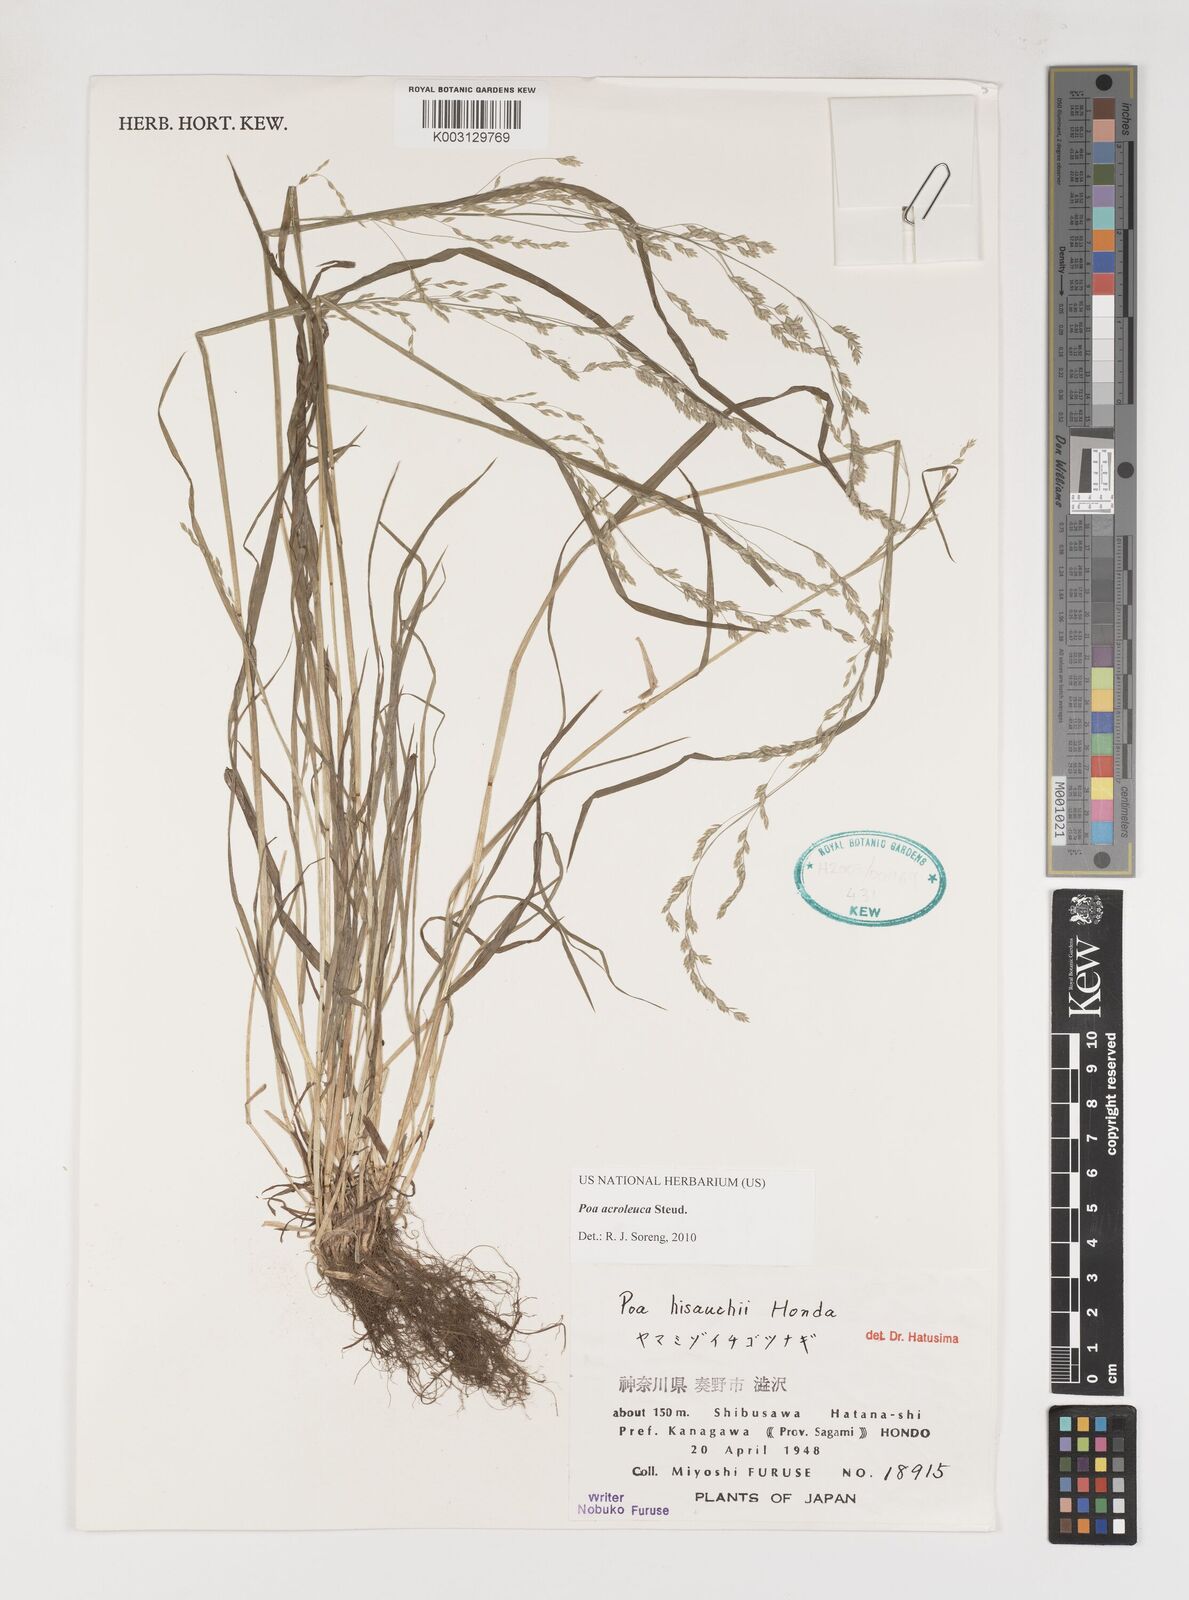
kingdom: Plantae
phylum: Tracheophyta
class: Liliopsida
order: Poales
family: Poaceae
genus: Poa
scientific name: Poa acroleuca
